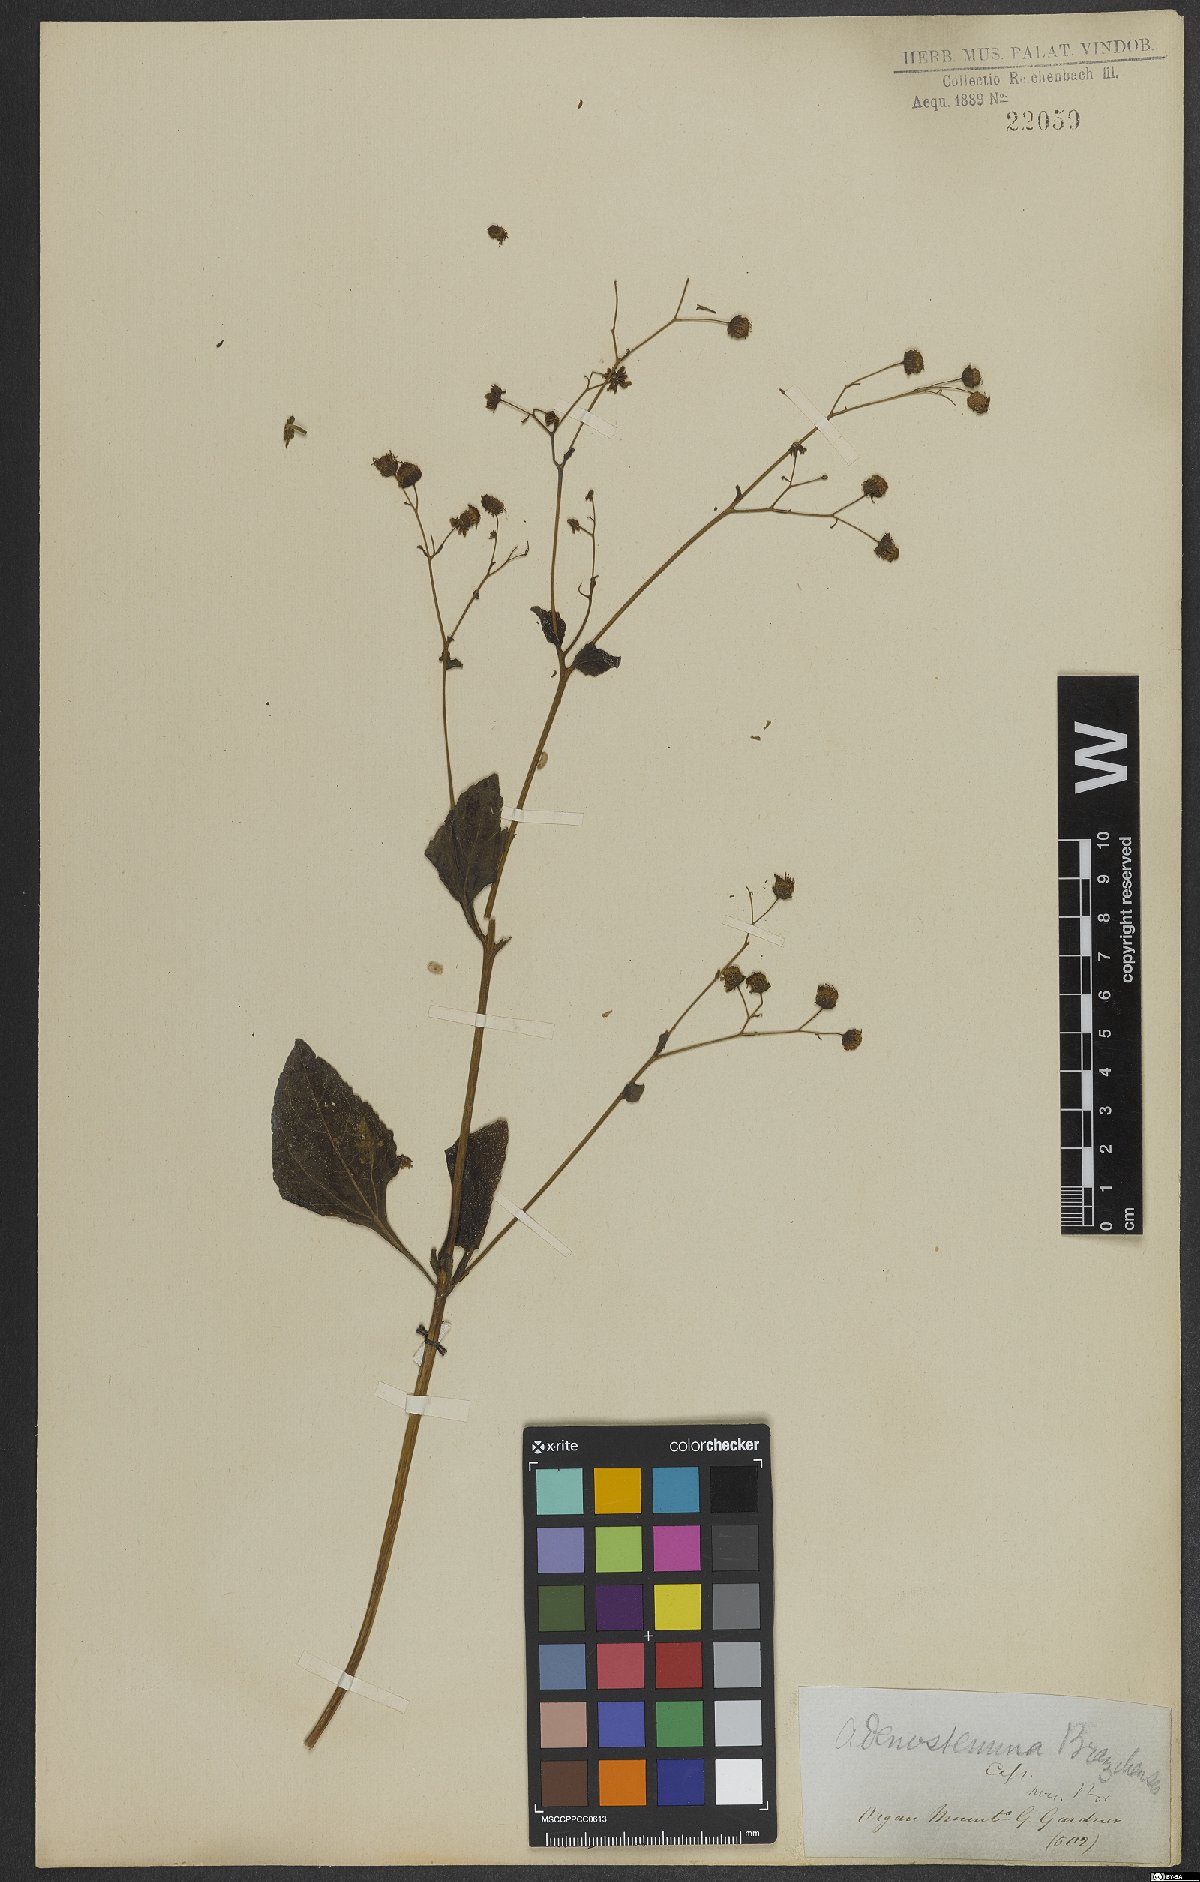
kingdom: Plantae
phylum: Tracheophyta
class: Magnoliopsida
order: Asterales
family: Asteraceae
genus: Adenostemma
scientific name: Adenostemma brasilianum
